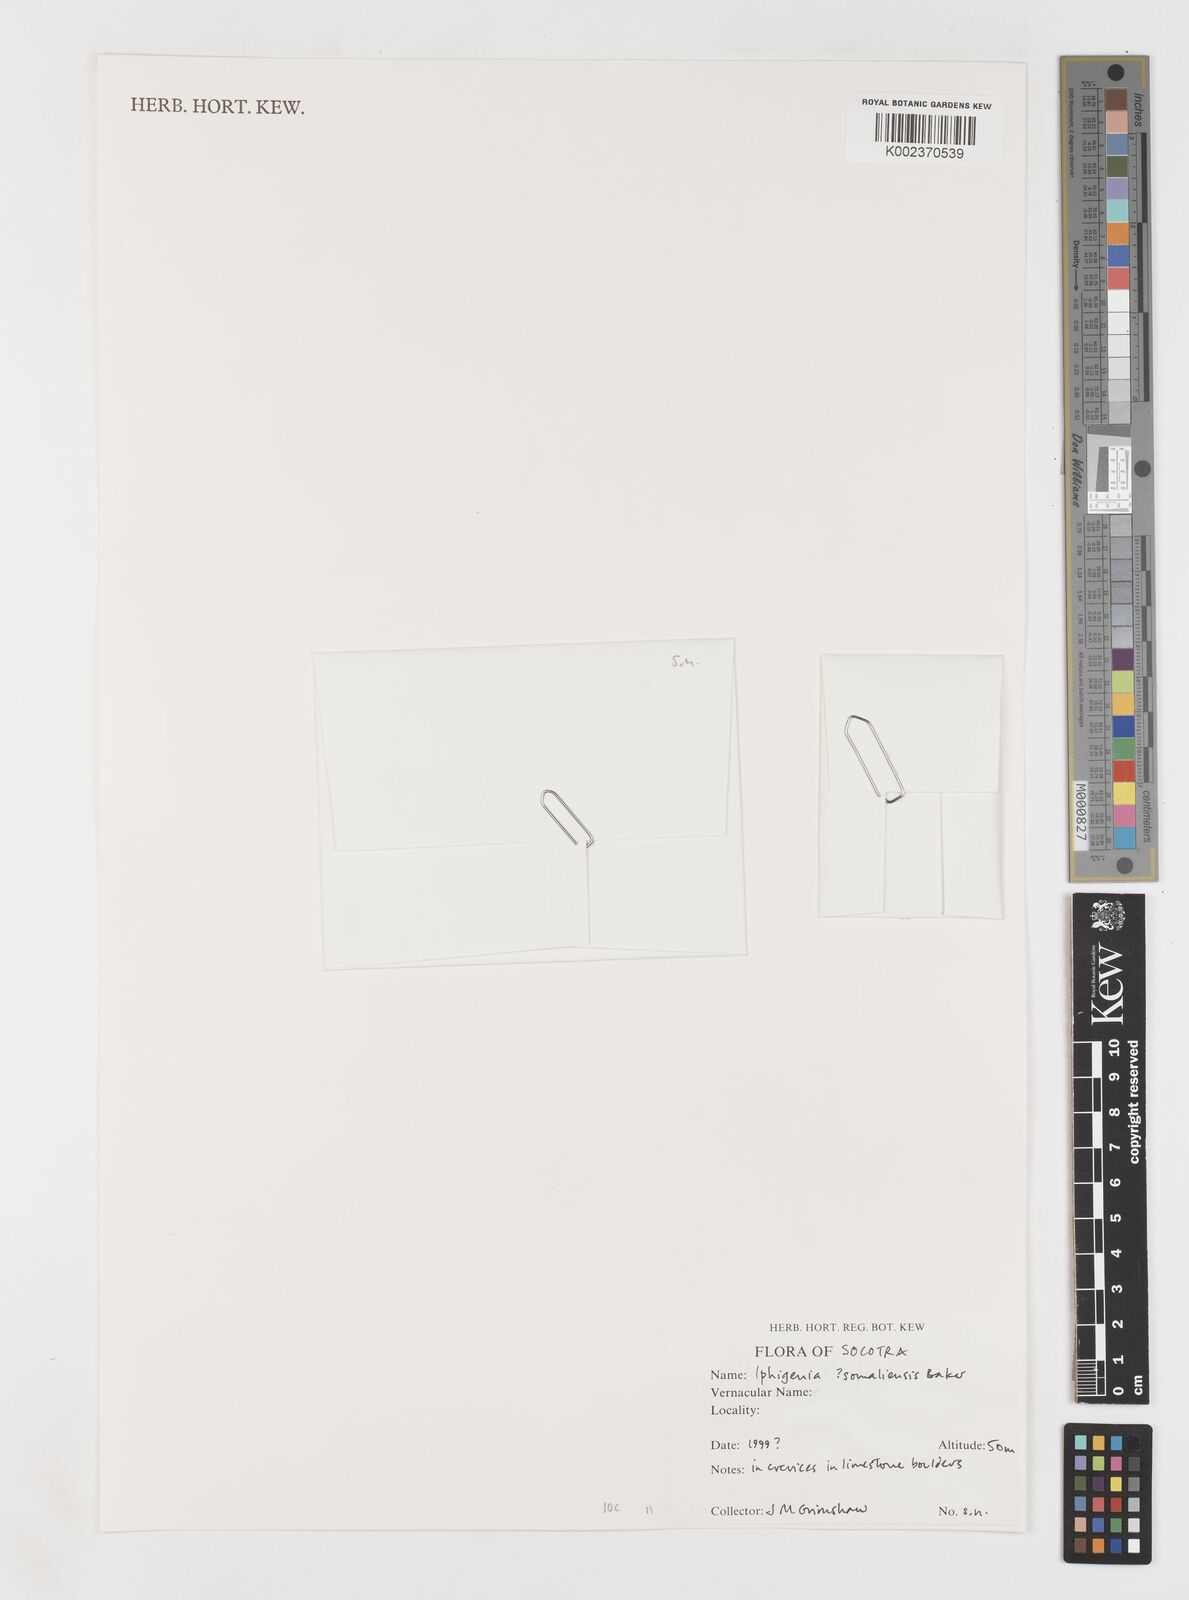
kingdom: Plantae
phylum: Tracheophyta
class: Liliopsida
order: Liliales
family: Colchicaceae
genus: Iphigenia
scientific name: Iphigenia oliveri
